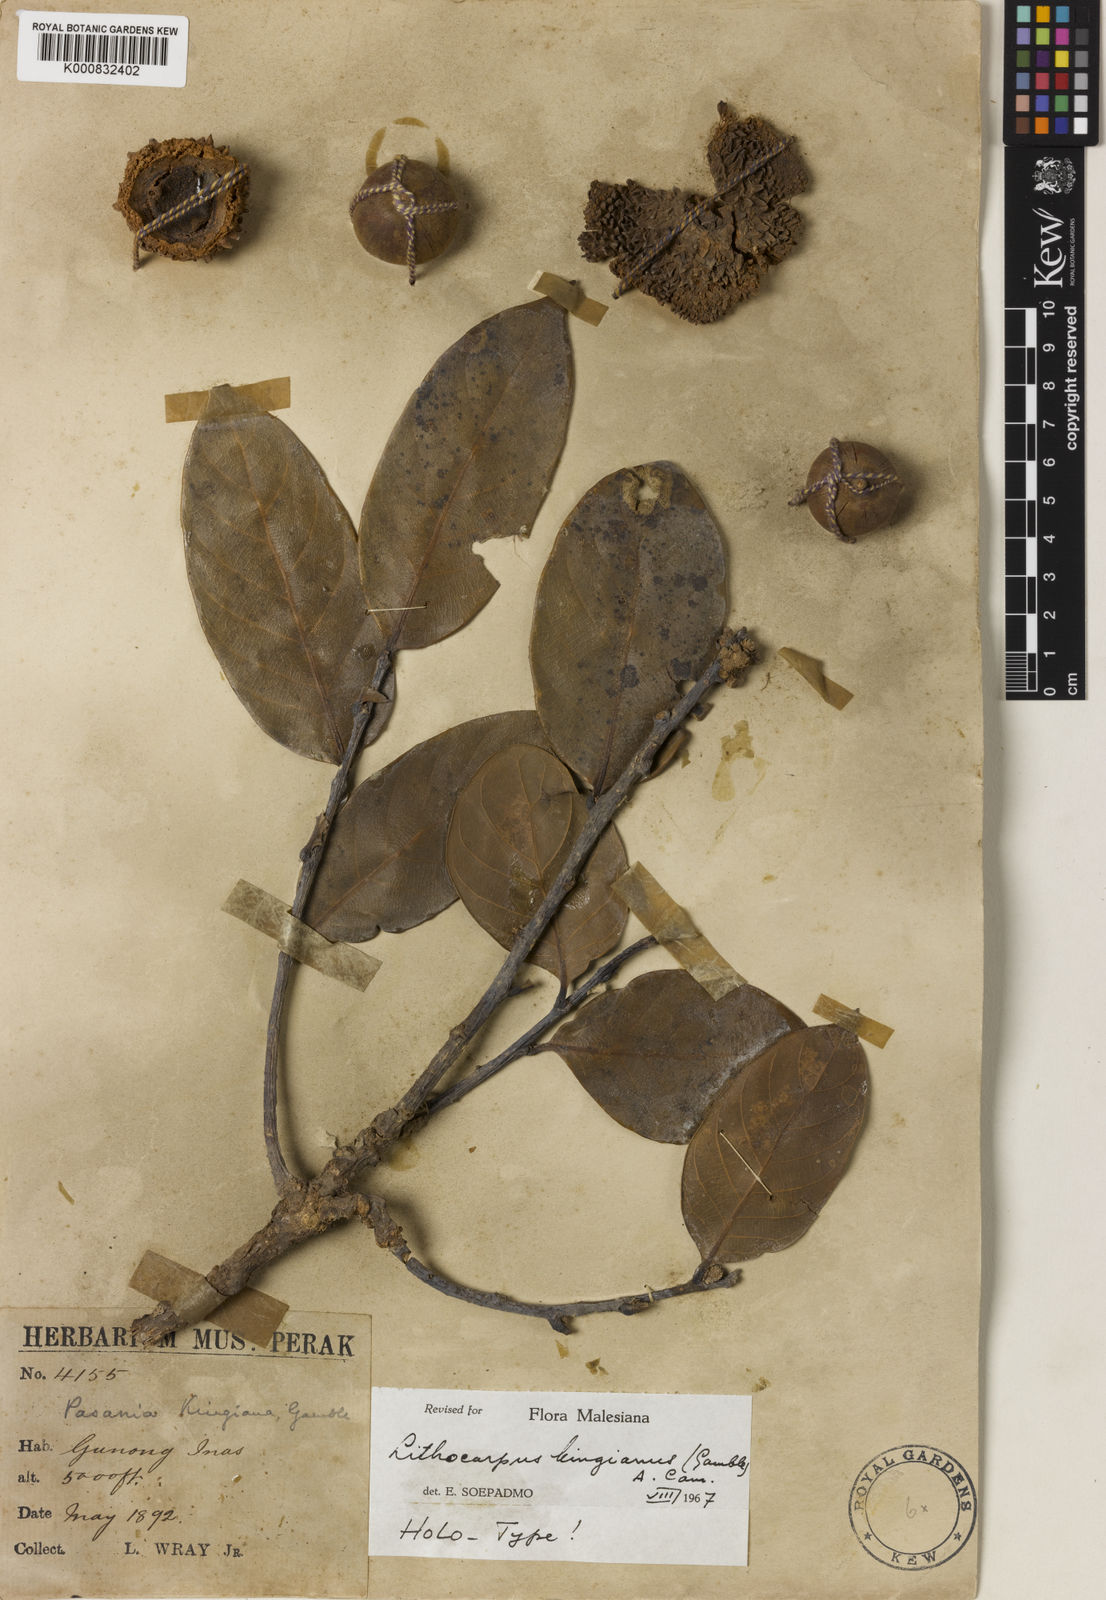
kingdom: Plantae
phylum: Tracheophyta
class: Magnoliopsida
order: Fagales
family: Fagaceae
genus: Lithocarpus
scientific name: Lithocarpus kingianus
